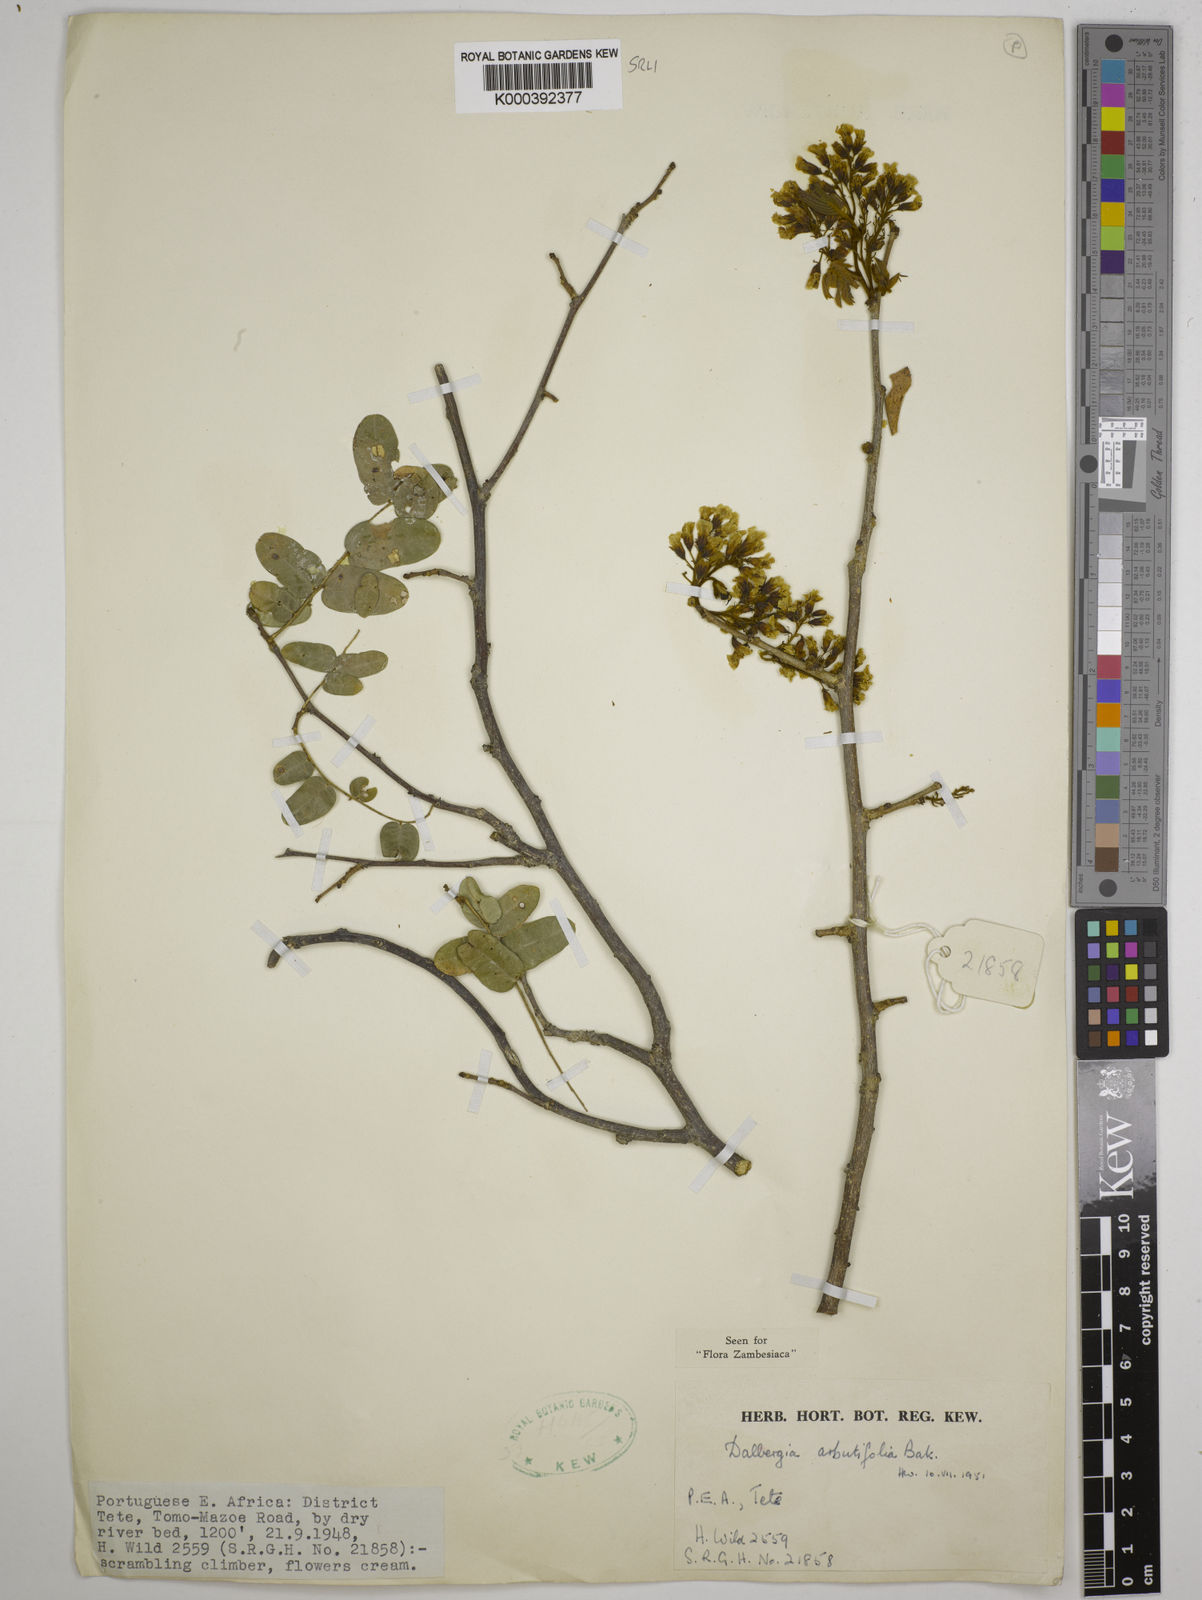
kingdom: Plantae
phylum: Tracheophyta
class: Magnoliopsida
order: Fabales
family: Fabaceae
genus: Dalbergia
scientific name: Dalbergia arbutifolia
